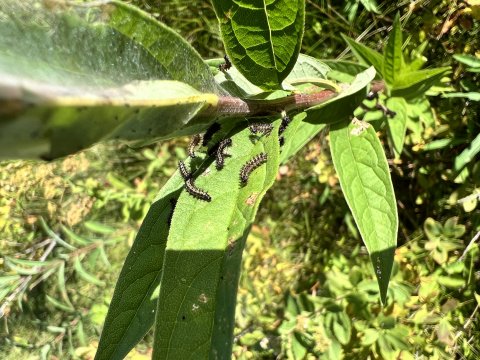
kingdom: Animalia
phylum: Arthropoda
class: Insecta
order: Lepidoptera
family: Nymphalidae
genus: Chlosyne
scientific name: Chlosyne harrisii
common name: Harris's Checkerspot
